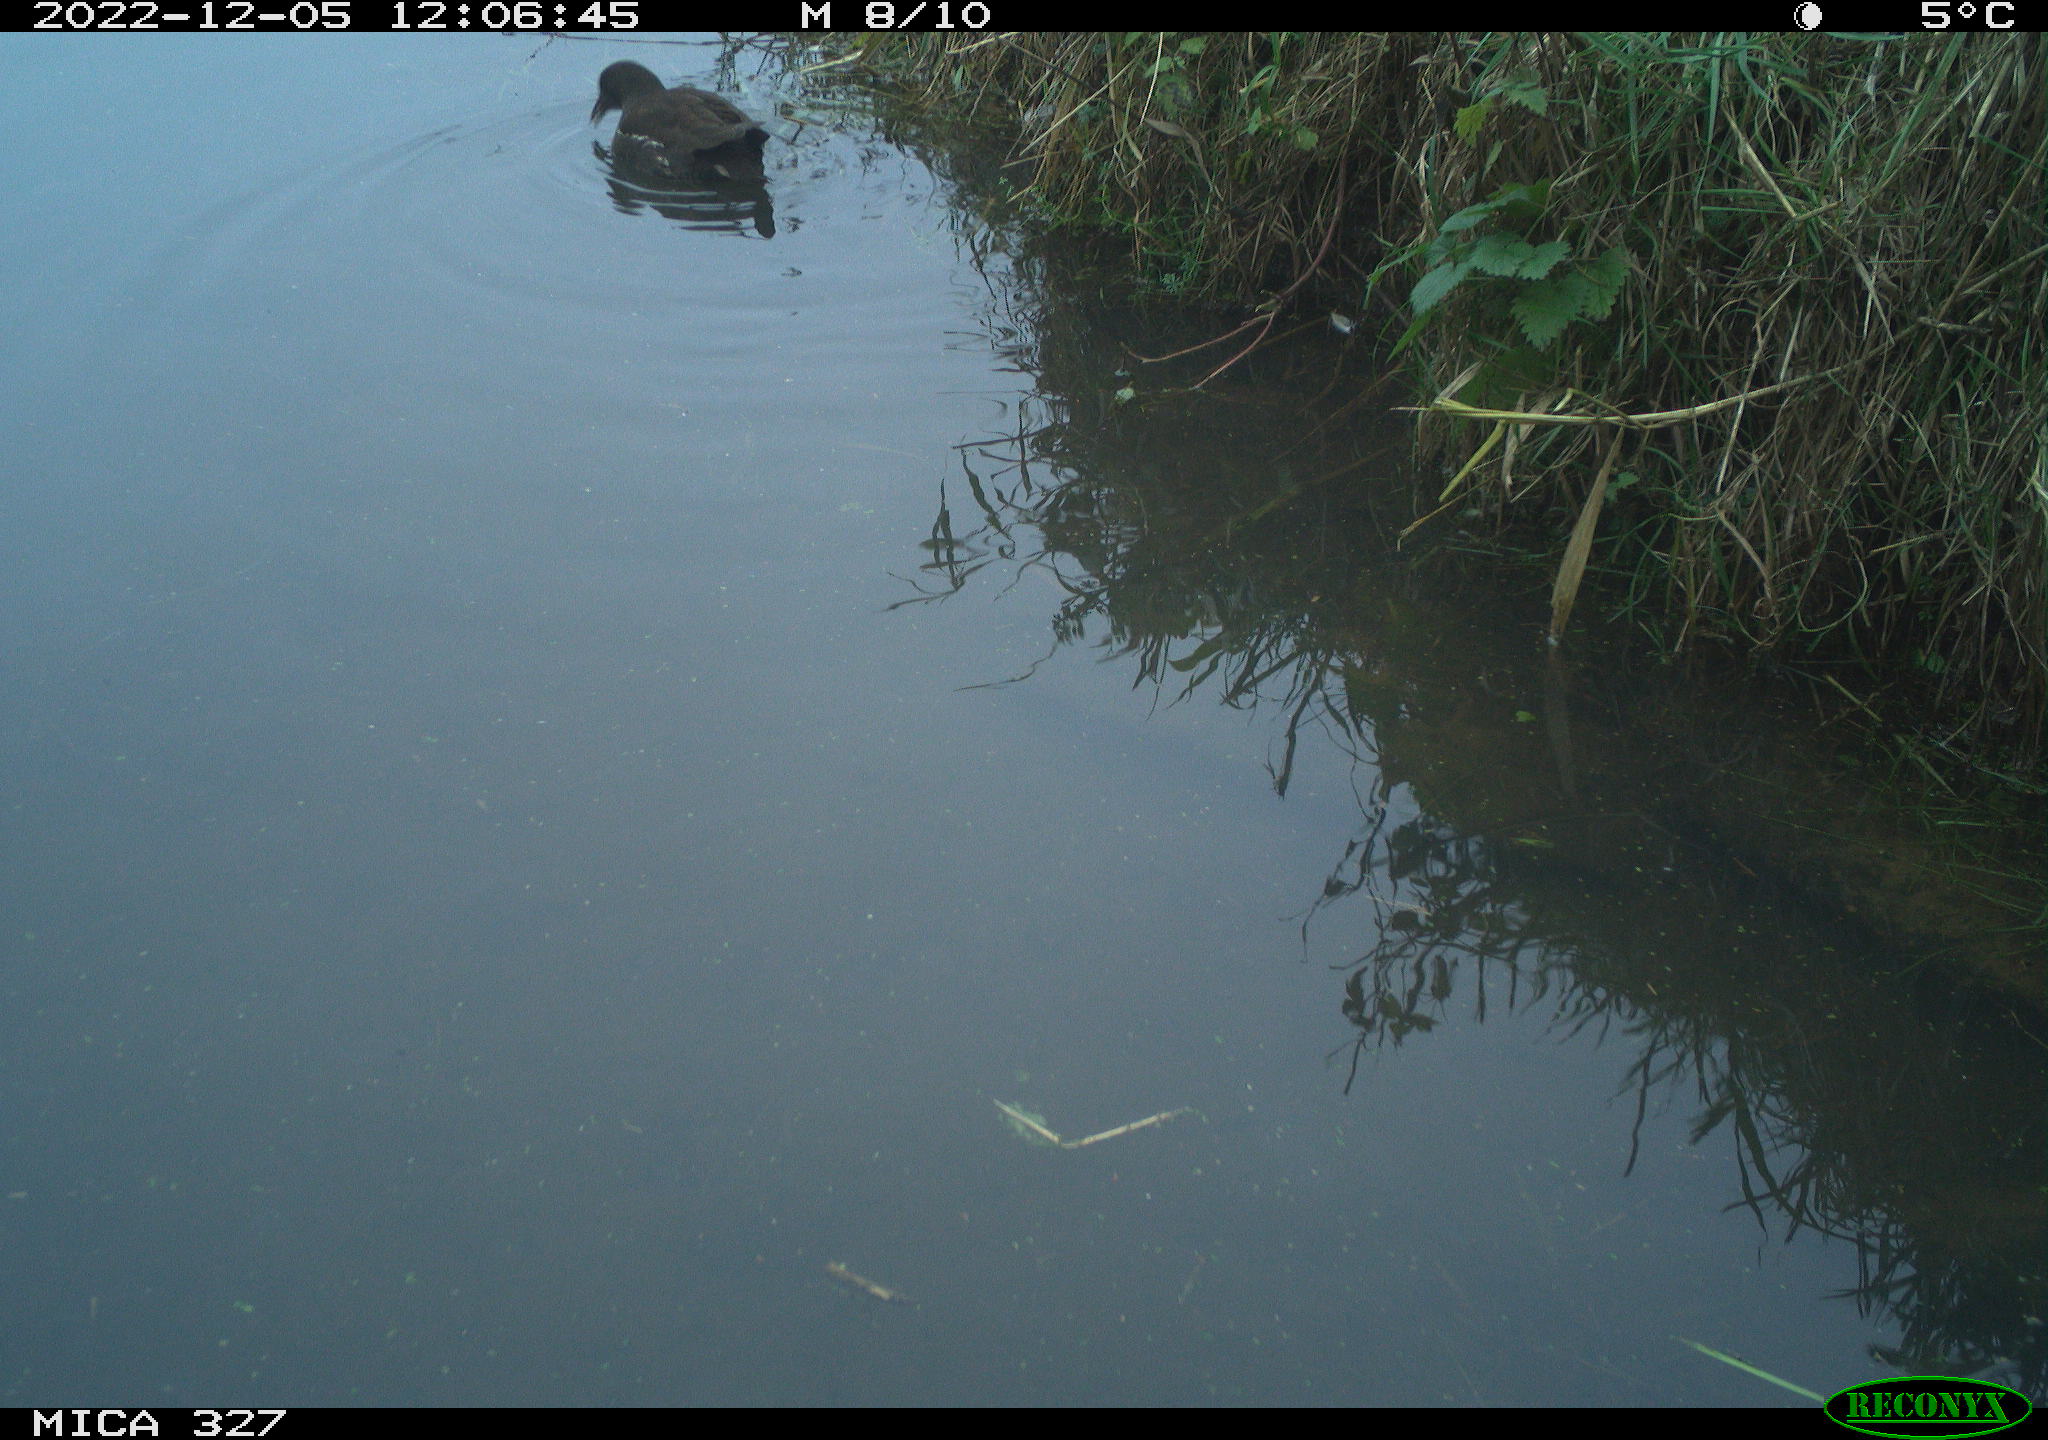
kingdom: Animalia
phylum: Chordata
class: Aves
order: Gruiformes
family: Rallidae
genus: Gallinula
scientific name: Gallinula chloropus
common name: Common moorhen
